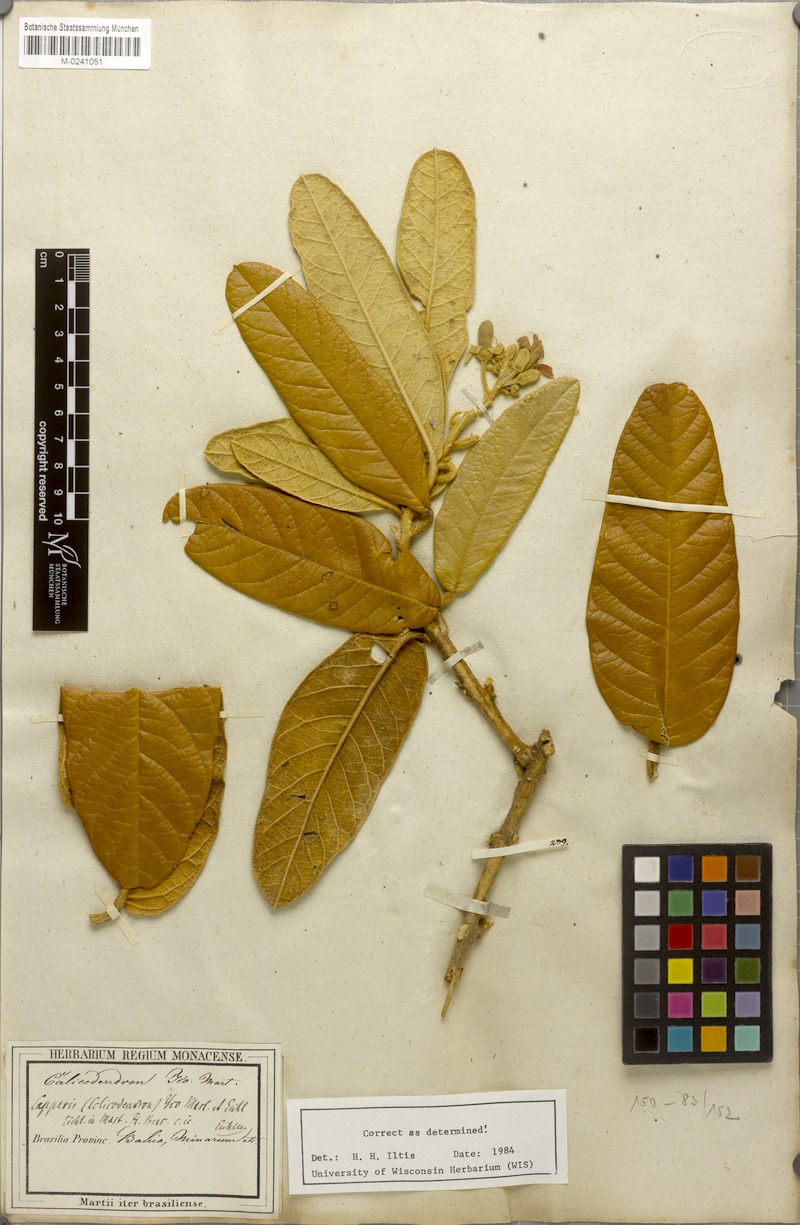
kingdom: Plantae
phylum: Tracheophyta
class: Magnoliopsida
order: Brassicales
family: Capparaceae
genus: Colicodendron
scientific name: Colicodendron yco
